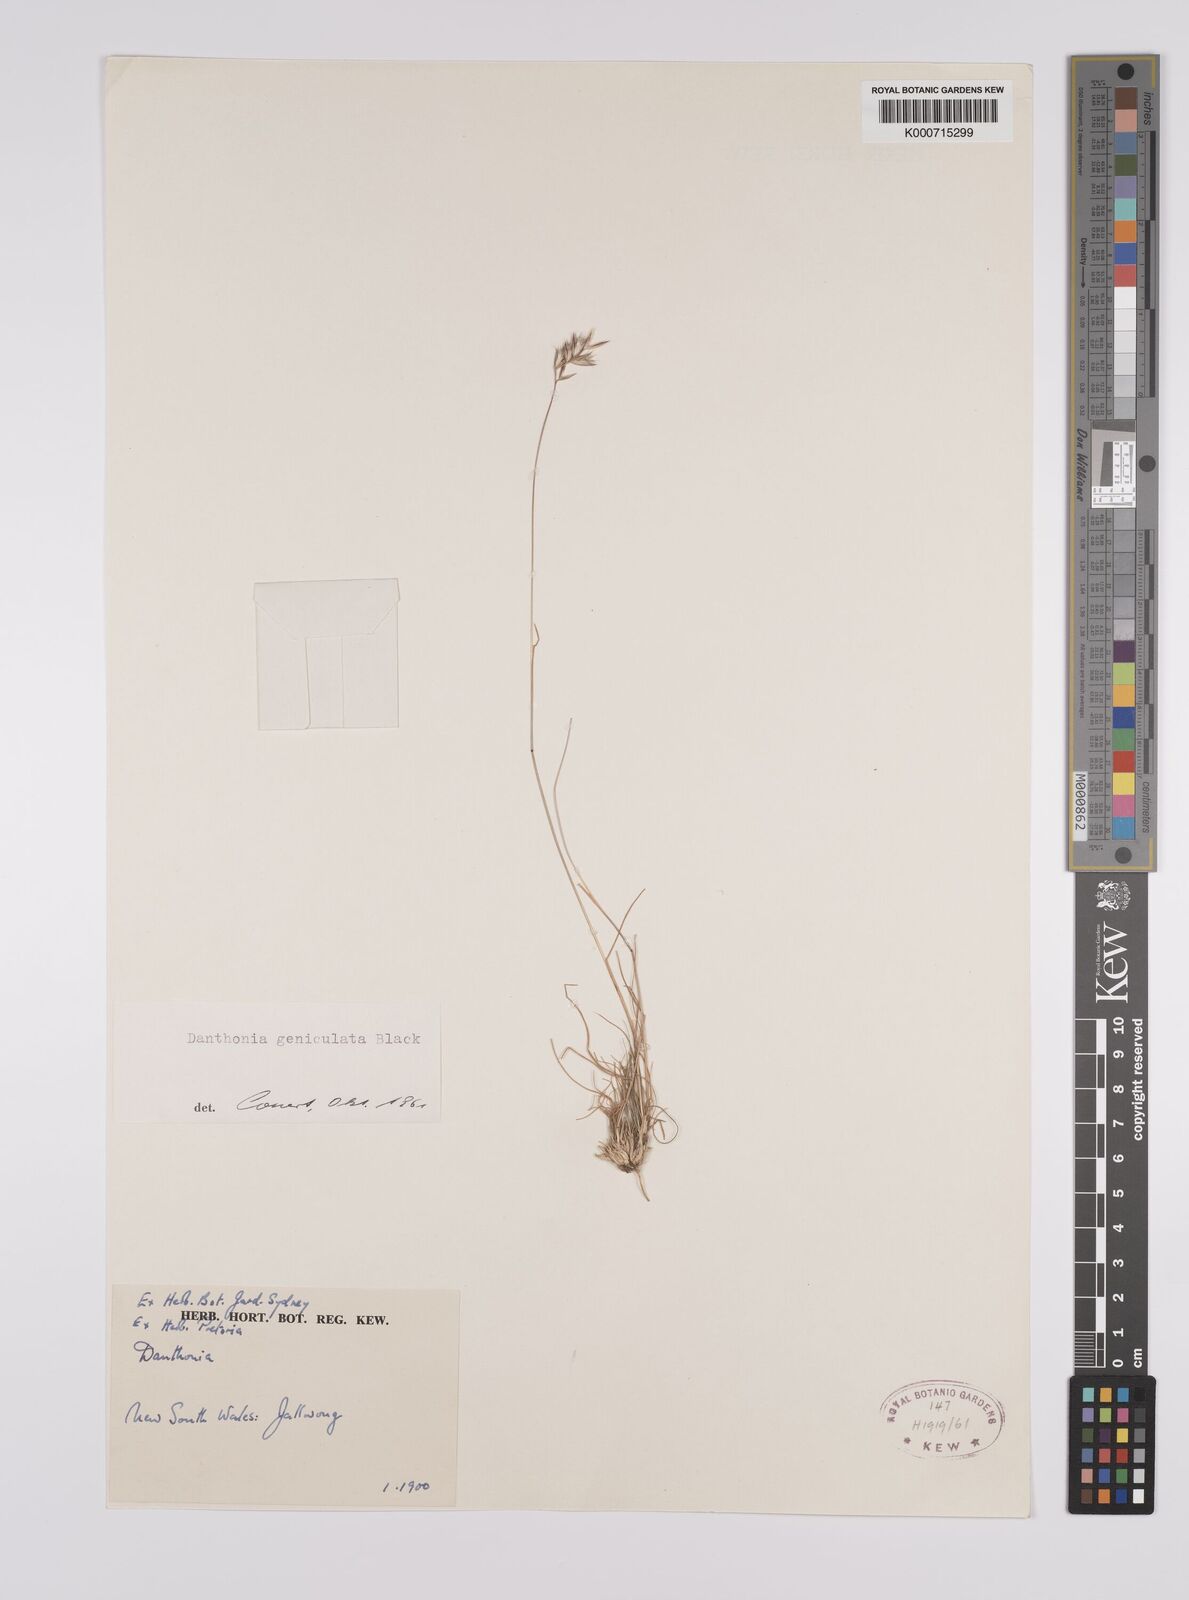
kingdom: Plantae
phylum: Tracheophyta
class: Liliopsida
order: Poales
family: Poaceae
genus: Rytidosperma
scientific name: Rytidosperma geniculatum
